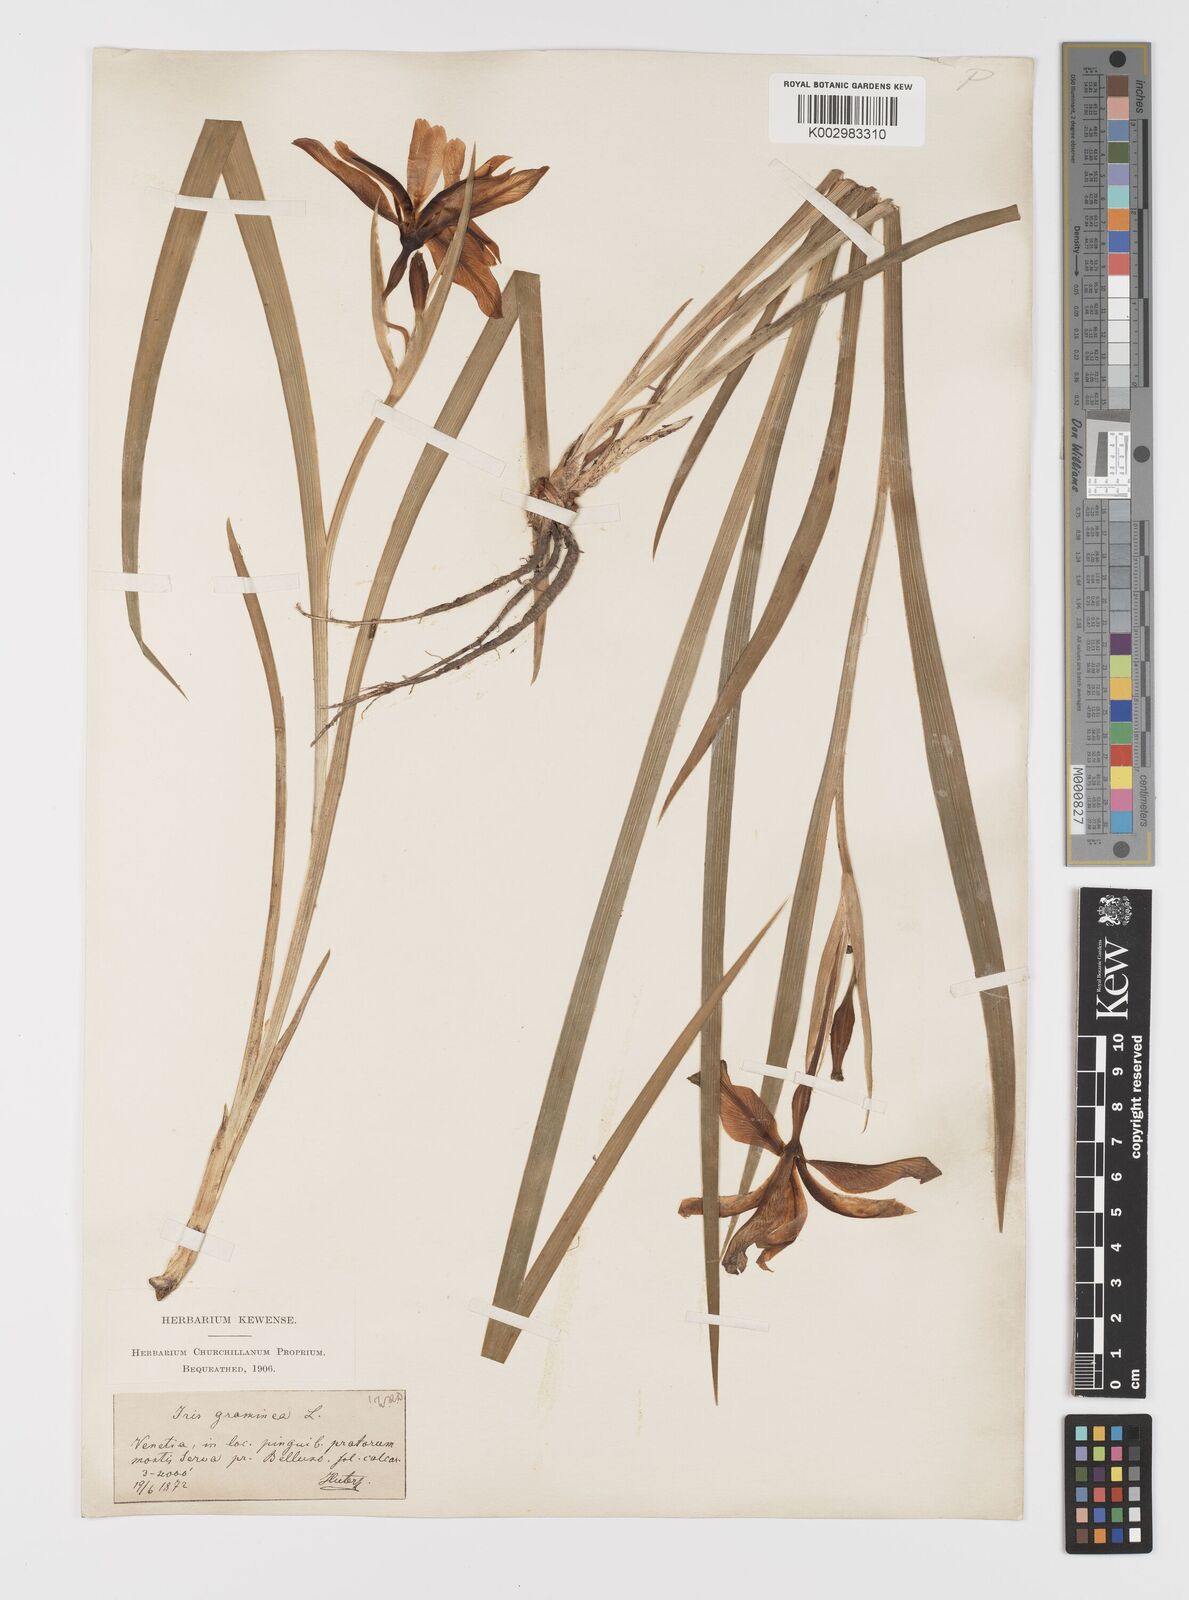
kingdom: Plantae
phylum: Tracheophyta
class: Liliopsida
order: Asparagales
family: Iridaceae
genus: Iris
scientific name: Iris graminea
